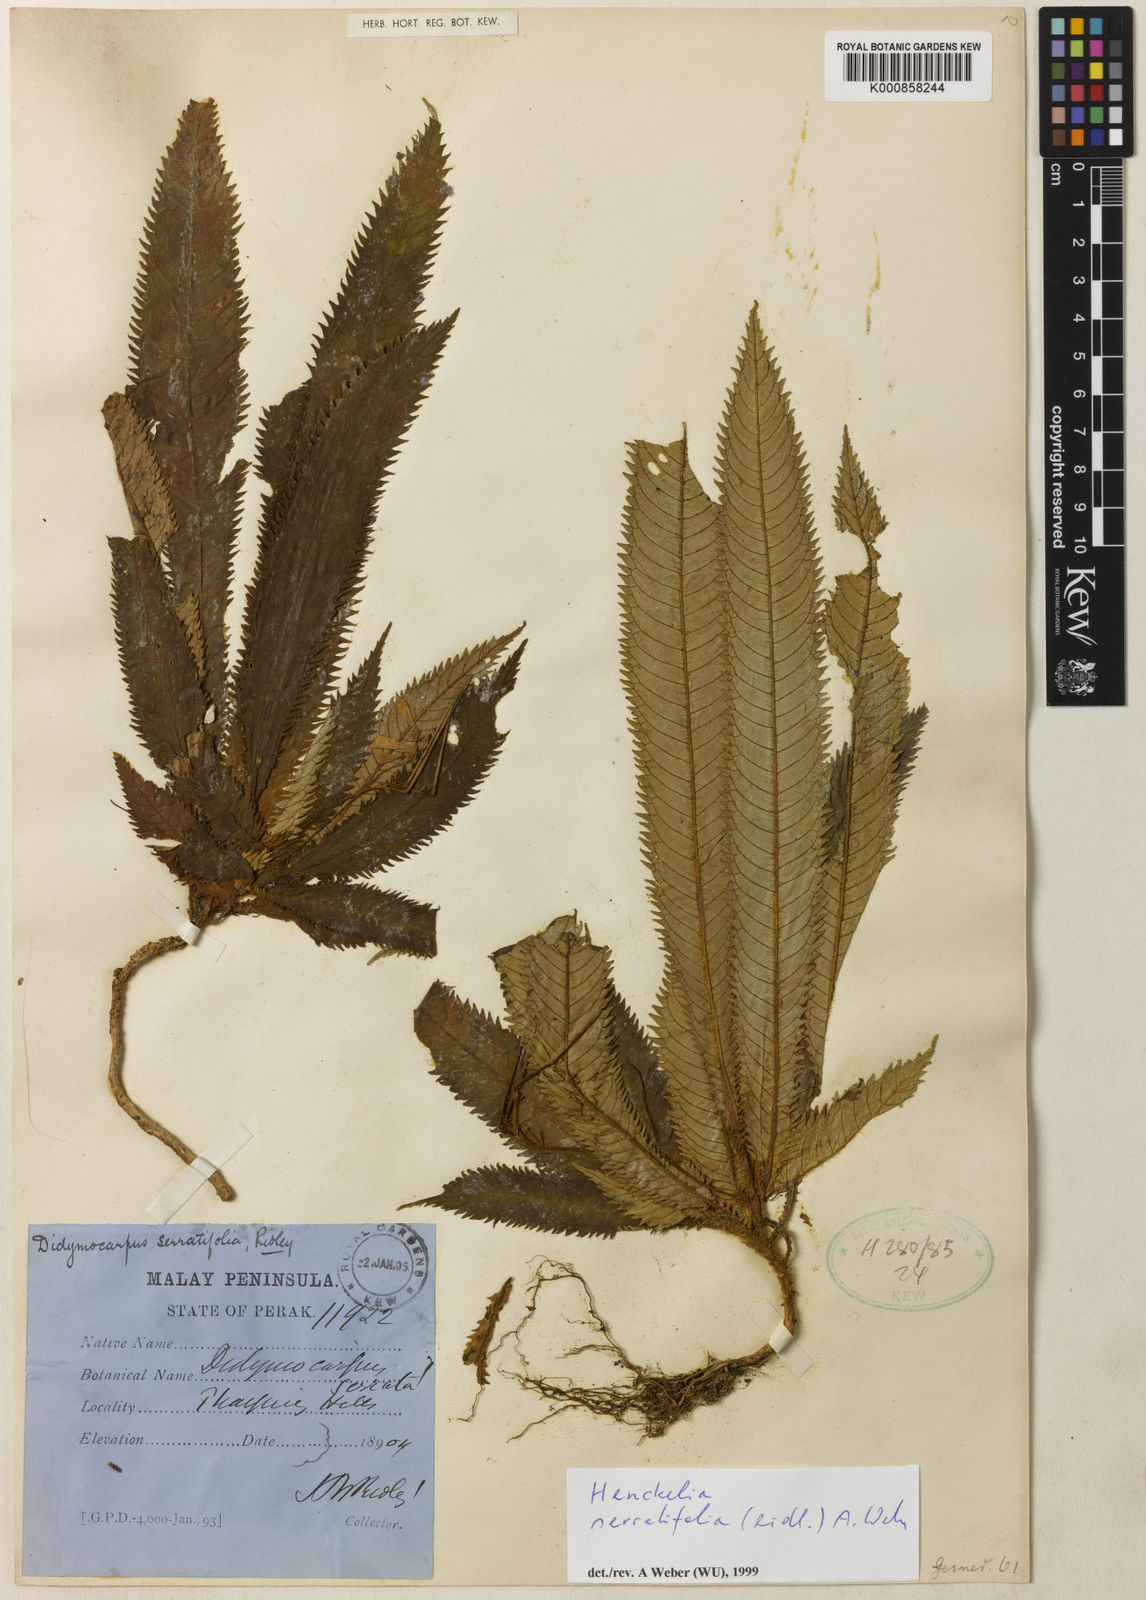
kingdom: Plantae
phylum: Tracheophyta
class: Magnoliopsida
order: Lamiales
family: Gesneriaceae
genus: Codonoboea
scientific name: Codonoboea serratifolia
